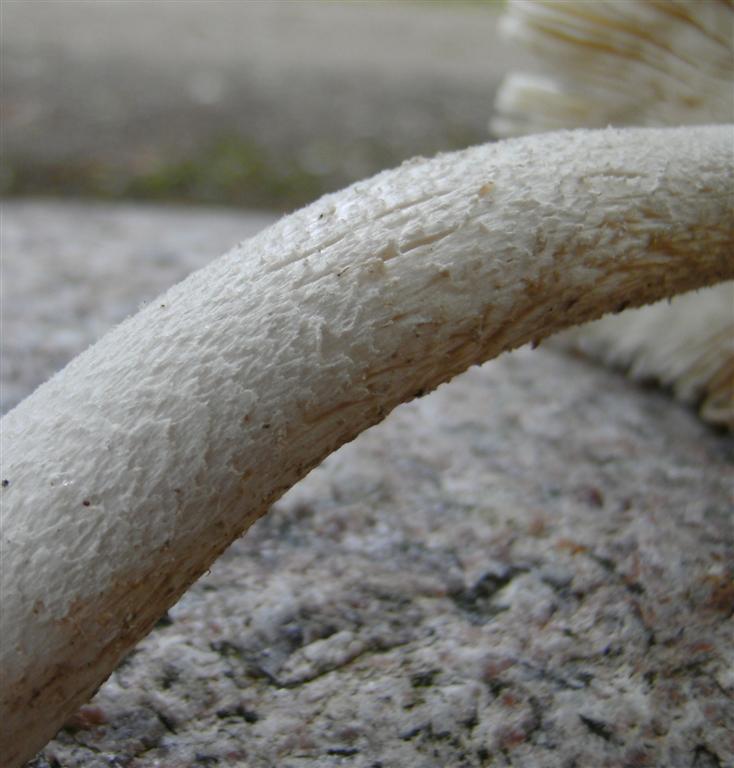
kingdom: Fungi
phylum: Basidiomycota
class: Agaricomycetes
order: Agaricales
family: Amanitaceae
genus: Amanita
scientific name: Amanita submembranacea
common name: gråspættet kam-fluesvamp
